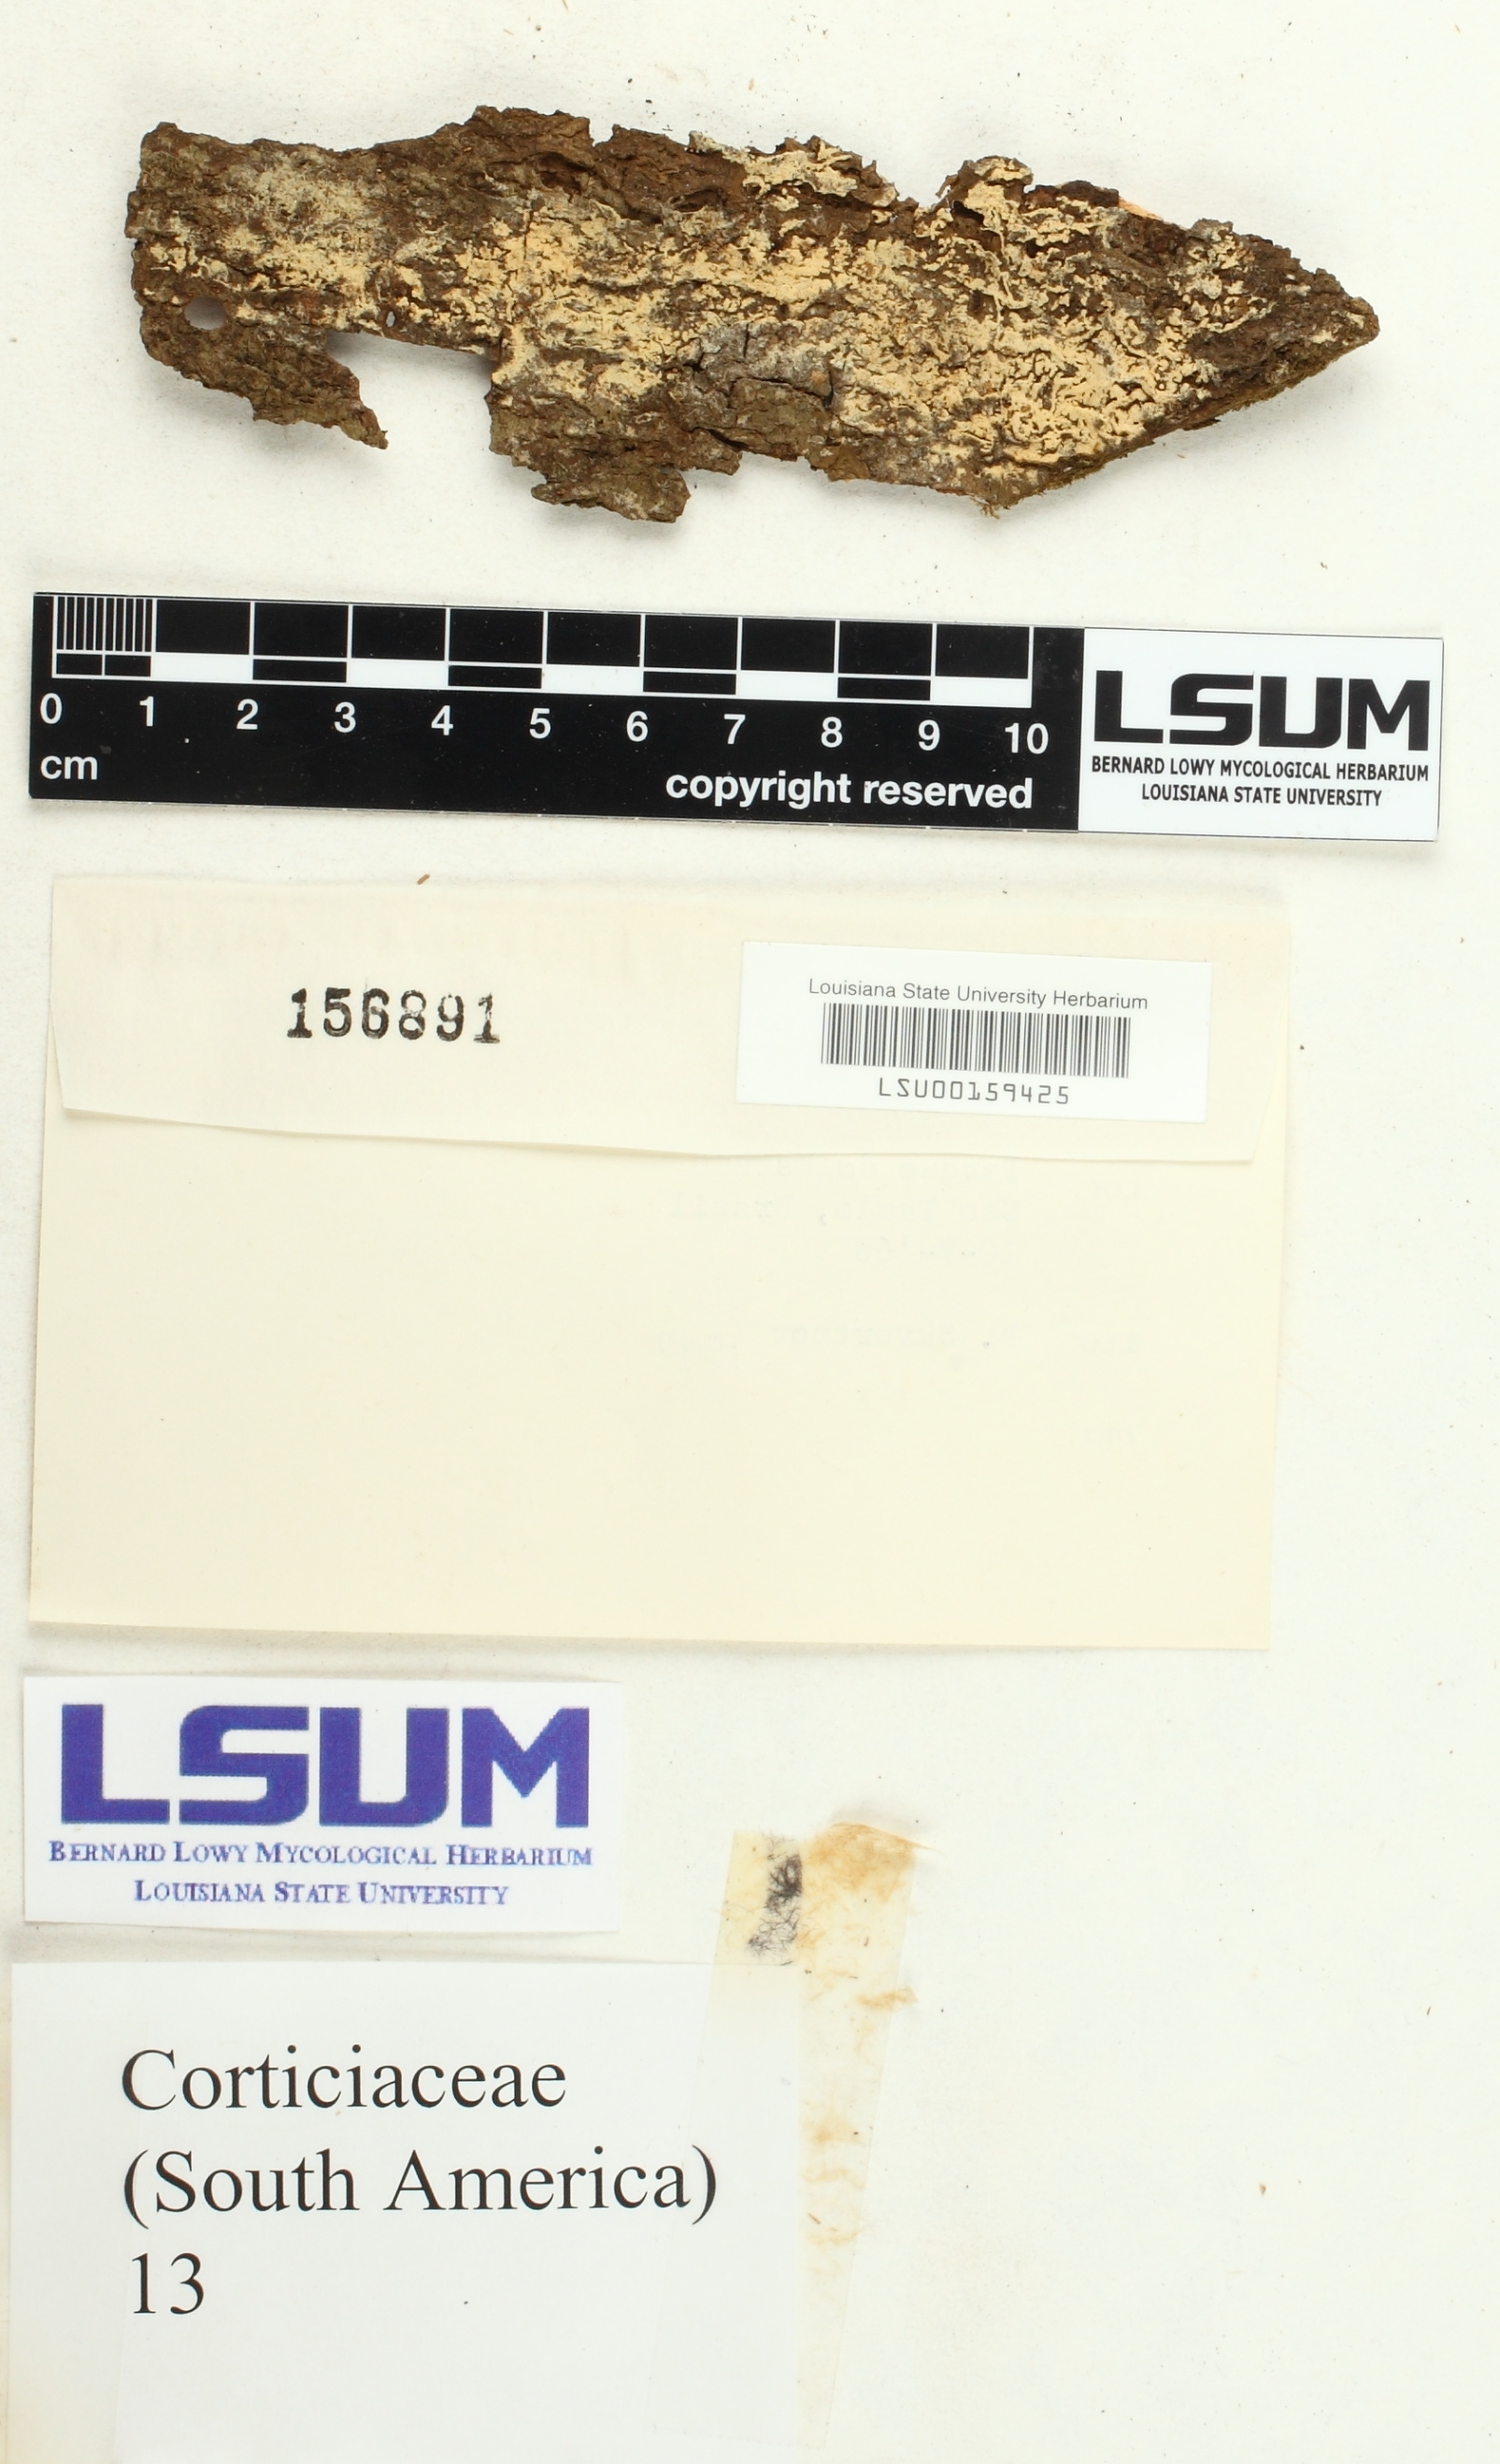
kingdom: Fungi
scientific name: Fungi
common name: Fungi
